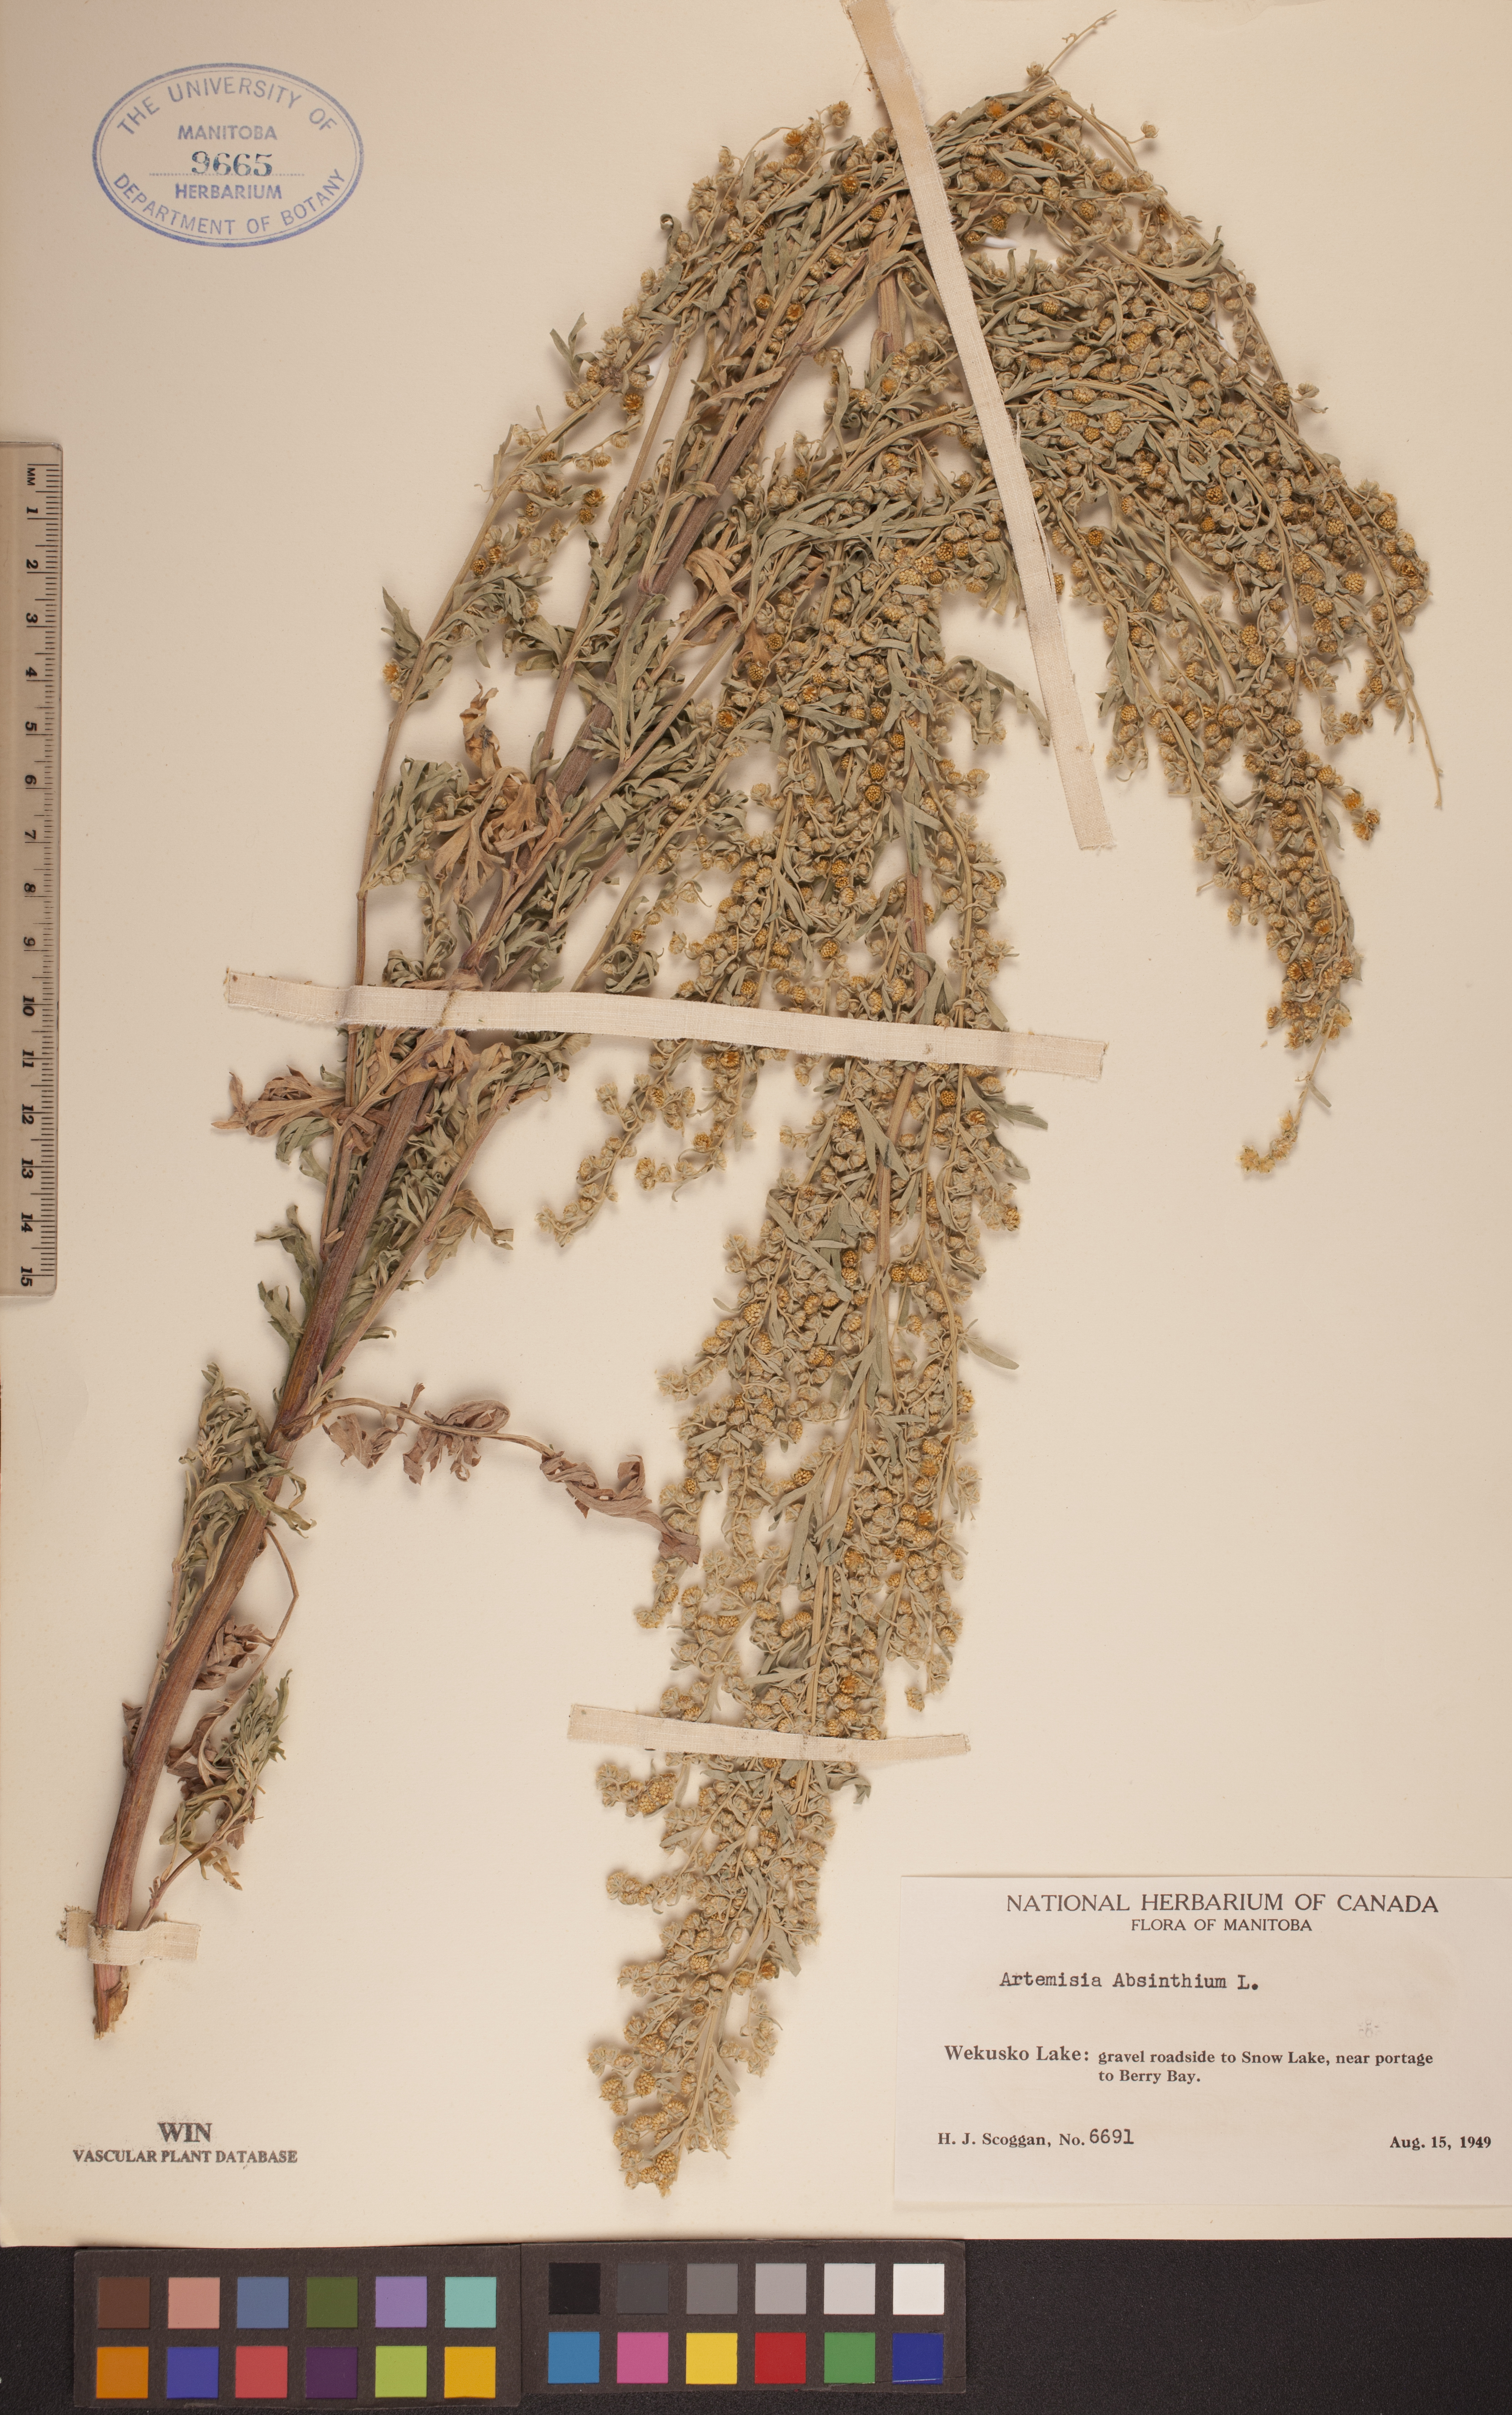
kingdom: Plantae
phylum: Tracheophyta
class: Magnoliopsida
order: Asterales
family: Asteraceae
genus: Artemisia
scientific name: Artemisia absinthium
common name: Wormwood
